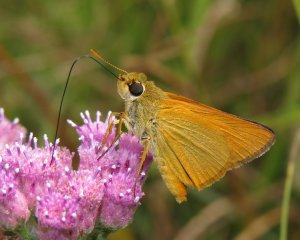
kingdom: Animalia
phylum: Arthropoda
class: Insecta
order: Lepidoptera
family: Hesperiidae
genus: Atrytone
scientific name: Atrytone delaware
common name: Delaware Skipper
